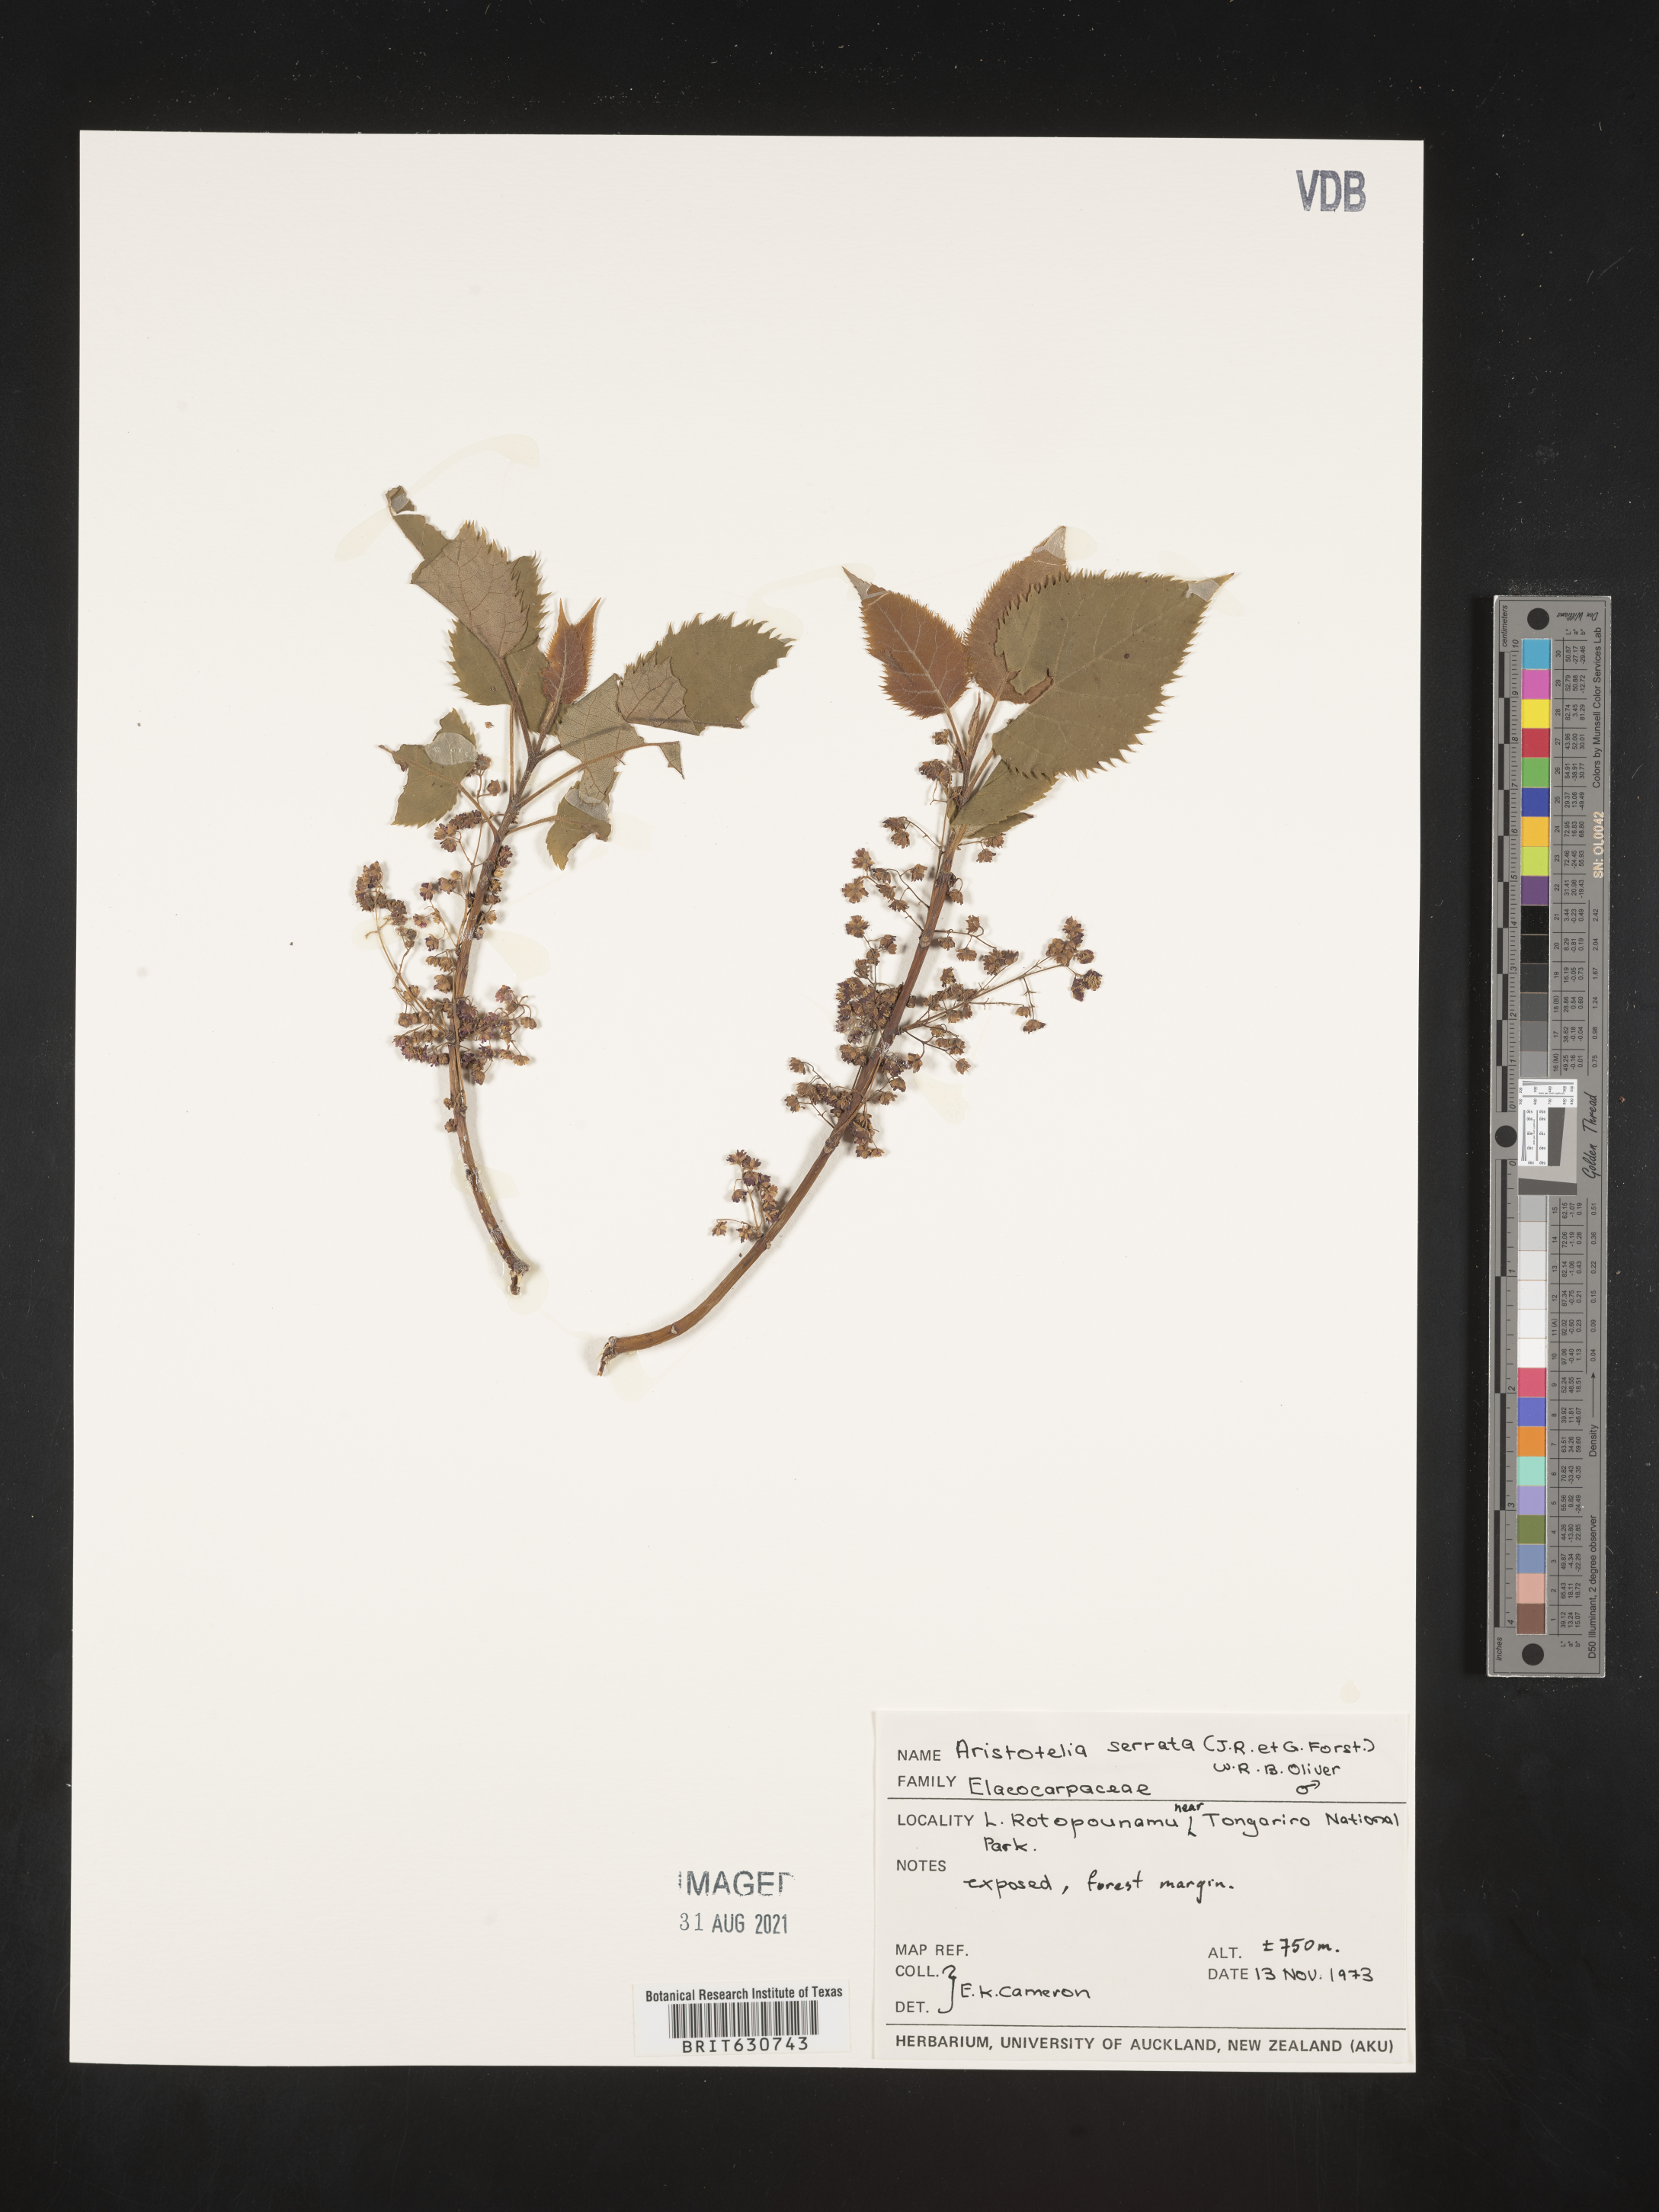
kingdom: Plantae
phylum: Tracheophyta
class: Magnoliopsida
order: Oxalidales
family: Elaeocarpaceae
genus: Aristotelia
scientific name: Aristotelia
